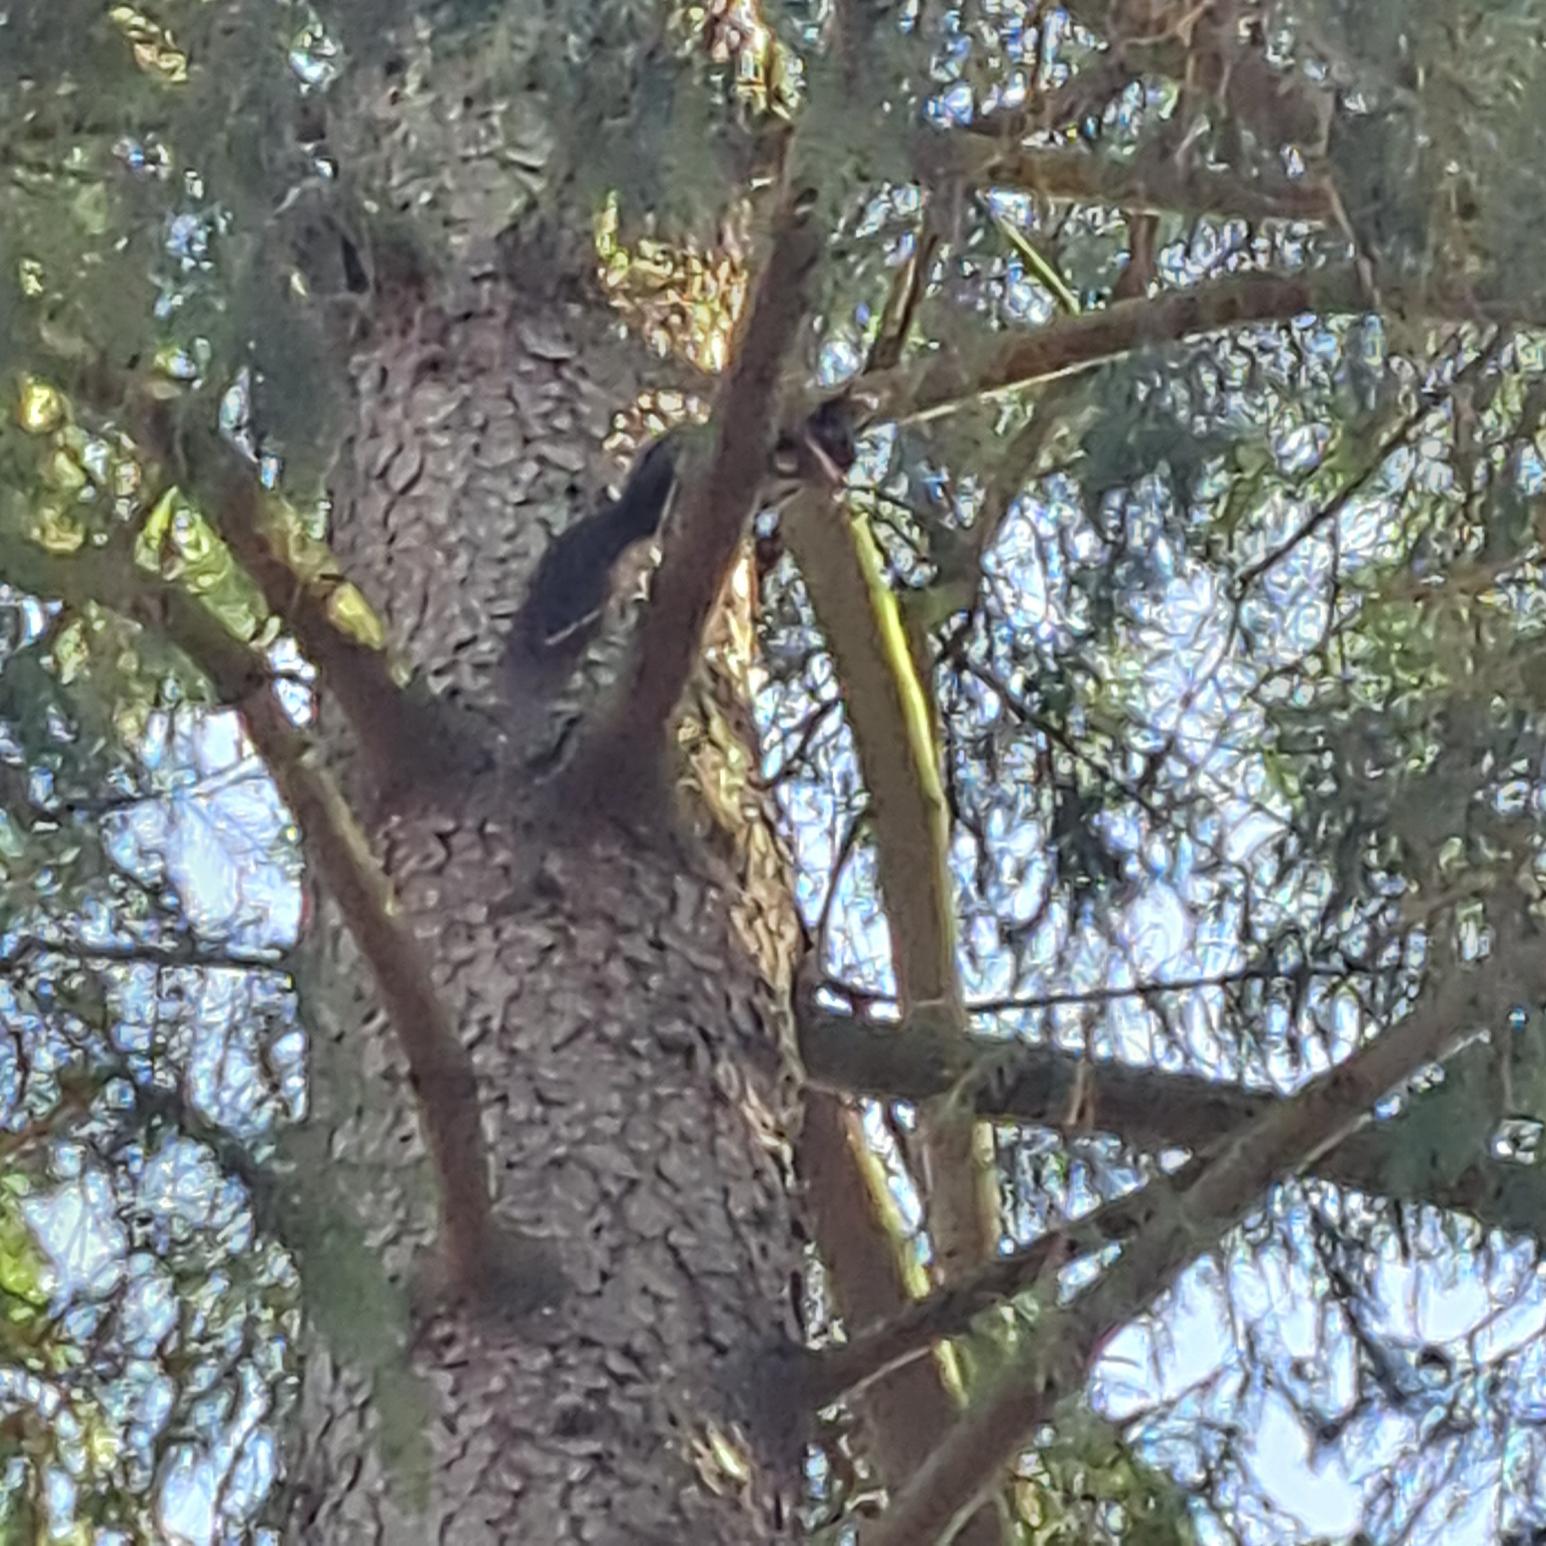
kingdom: Animalia
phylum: Chordata
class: Mammalia
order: Rodentia
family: Sciuridae
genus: Sciurus
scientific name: Sciurus vulgaris
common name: Egern
